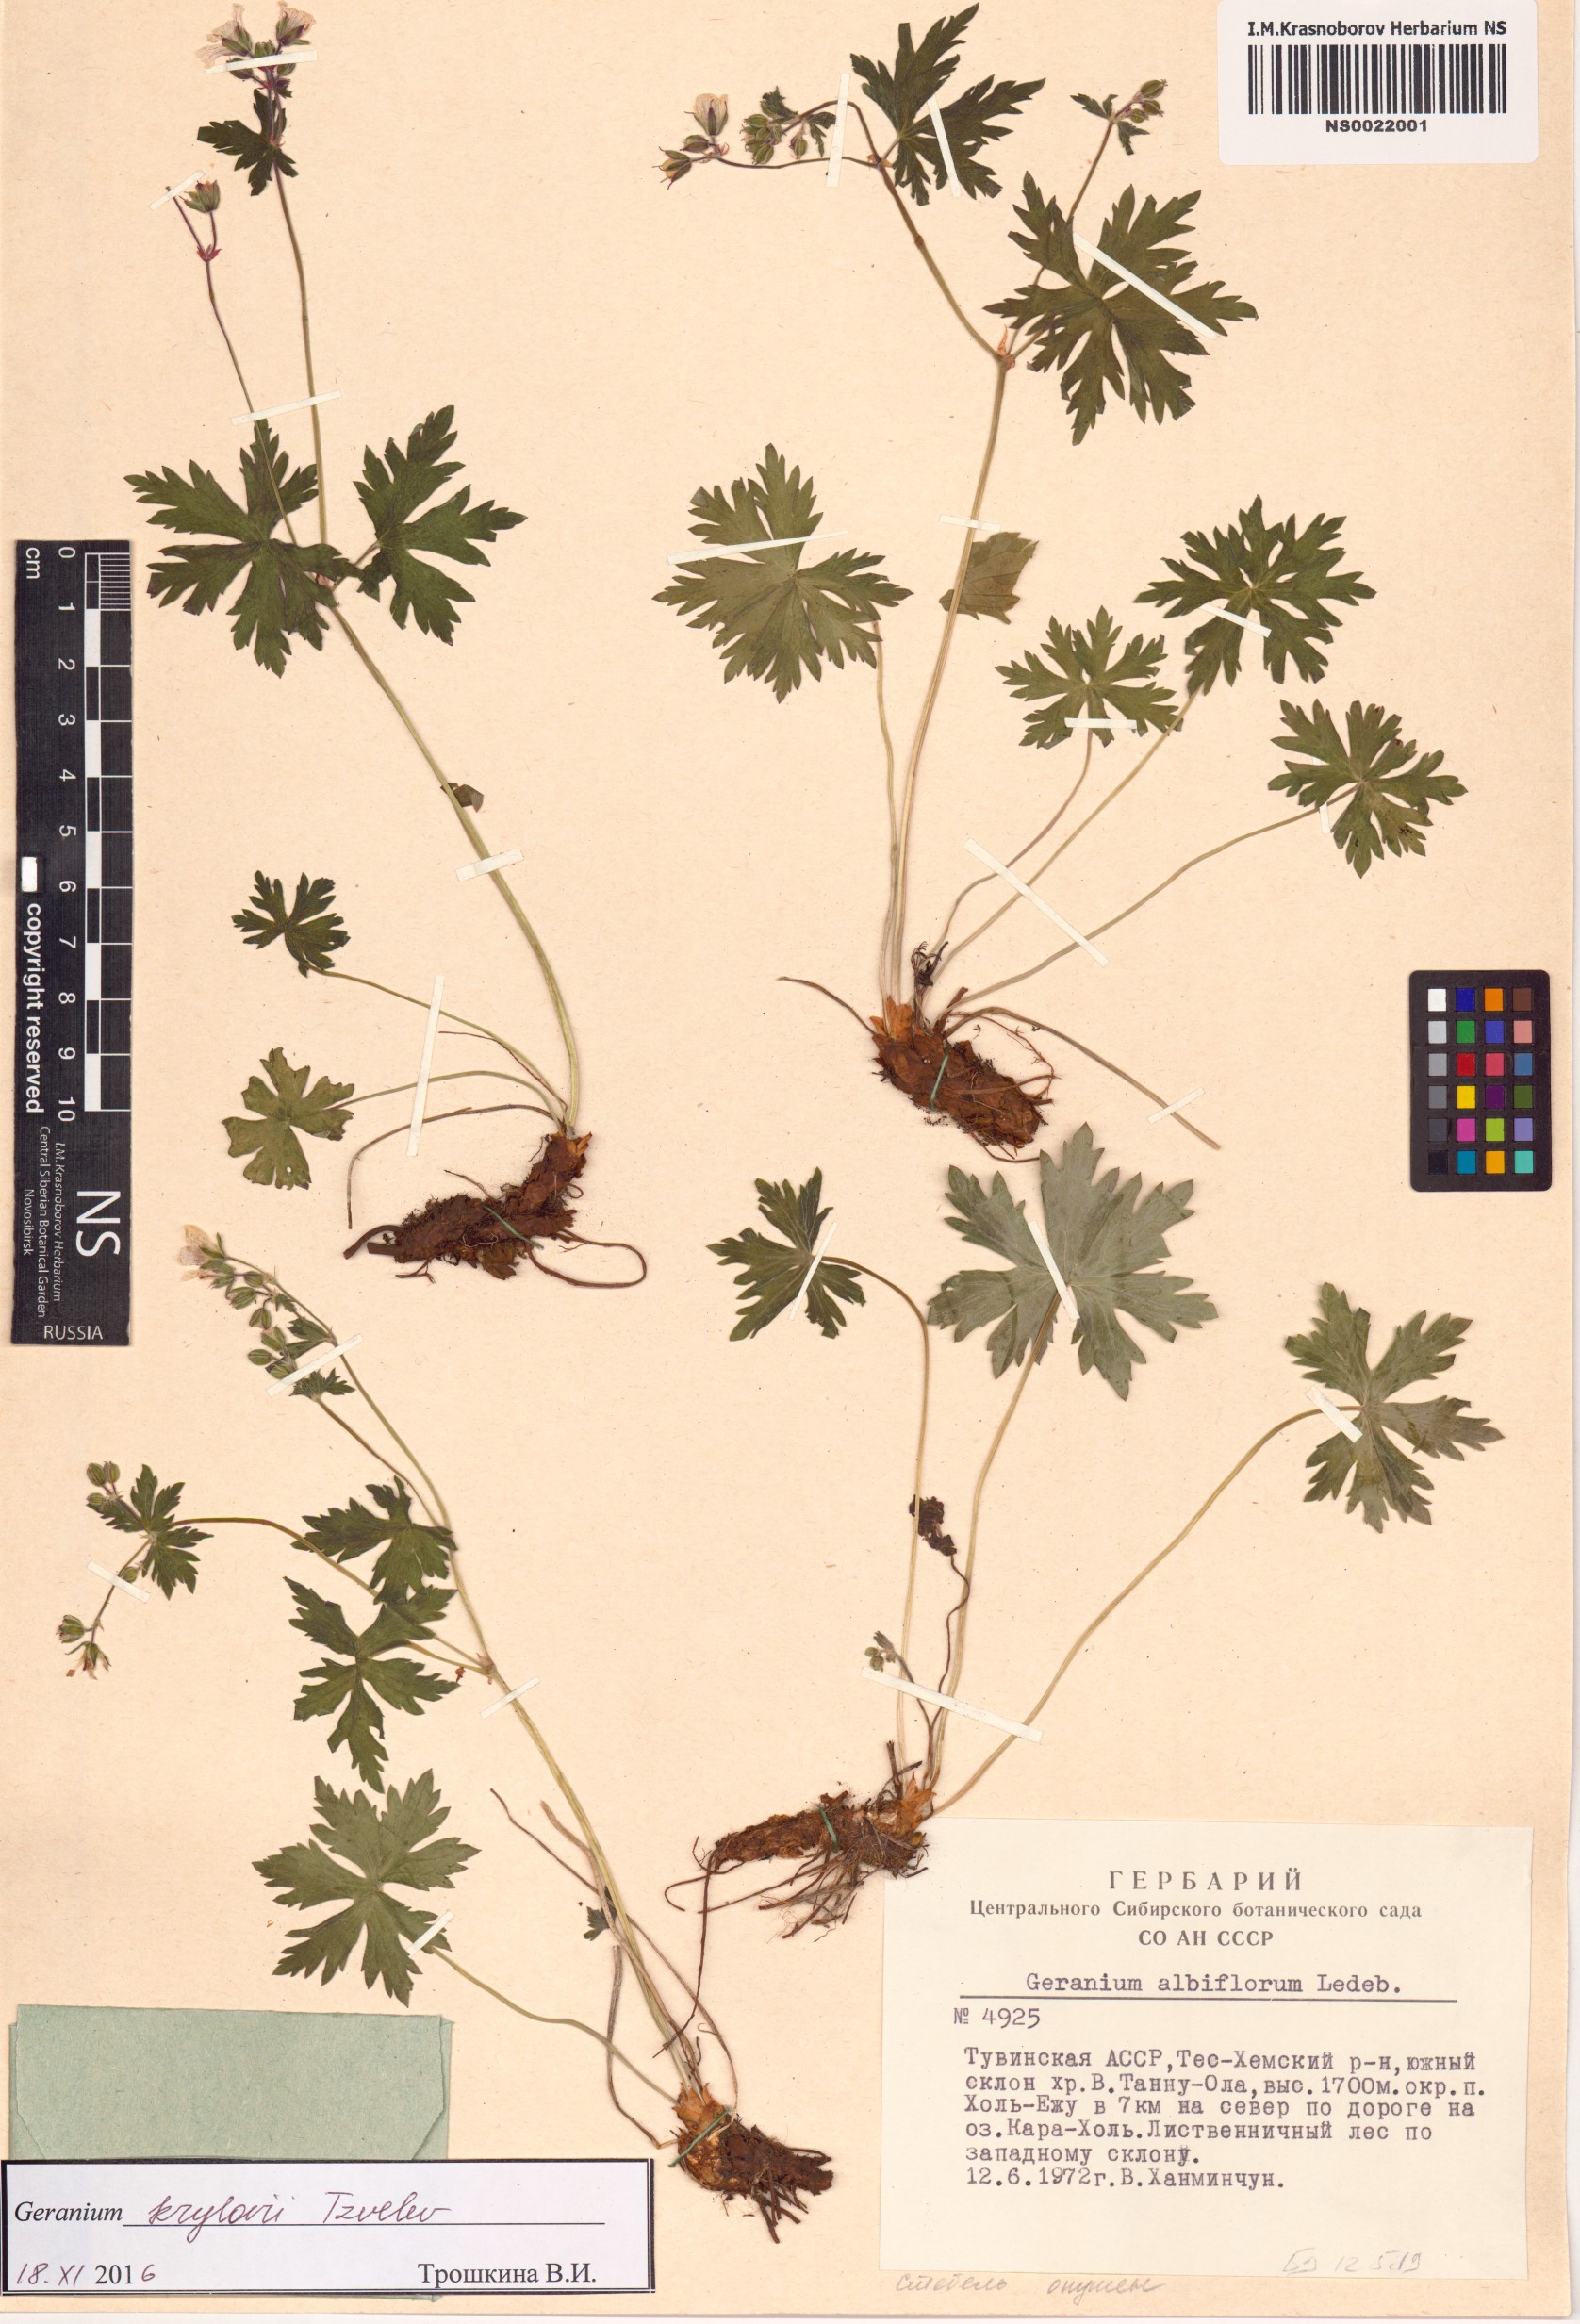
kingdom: Plantae
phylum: Tracheophyta
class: Magnoliopsida
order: Geraniales
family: Geraniaceae
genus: Geranium
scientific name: Geranium sylvaticum
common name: Wood crane's-bill
